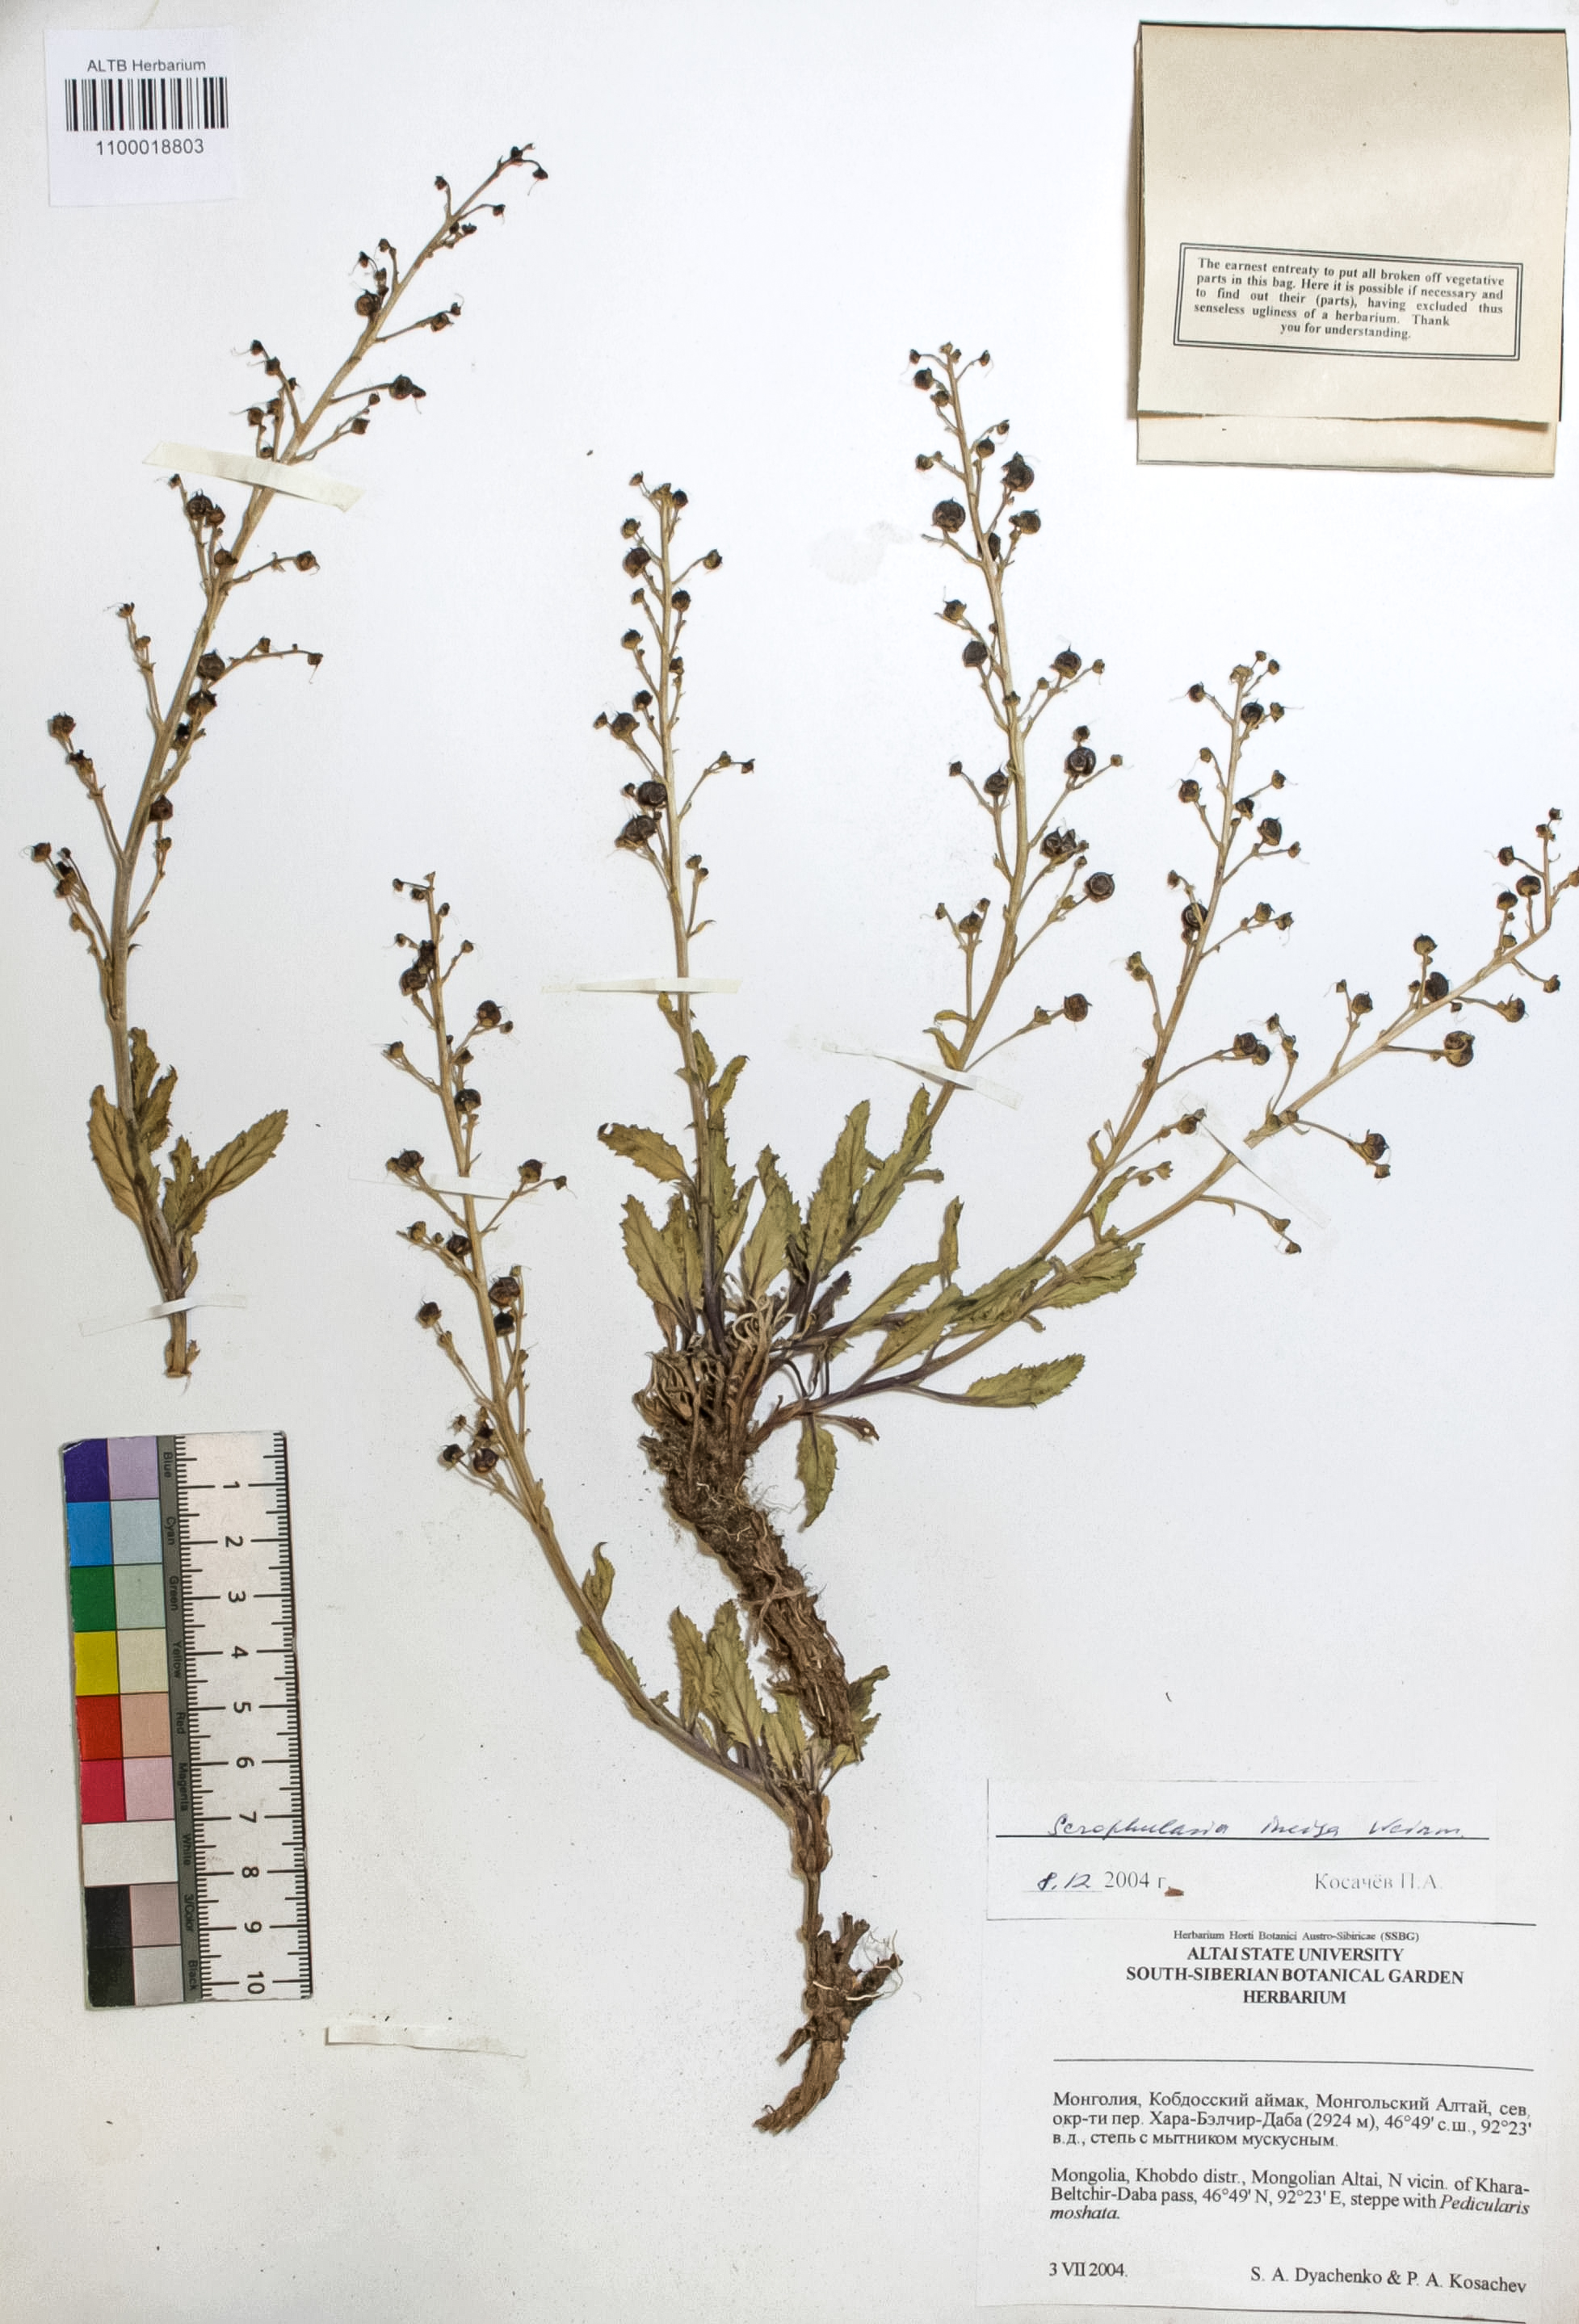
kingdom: Plantae
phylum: Tracheophyta
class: Magnoliopsida
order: Lamiales
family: Scrophulariaceae
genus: Scrophularia
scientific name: Scrophularia incisa
